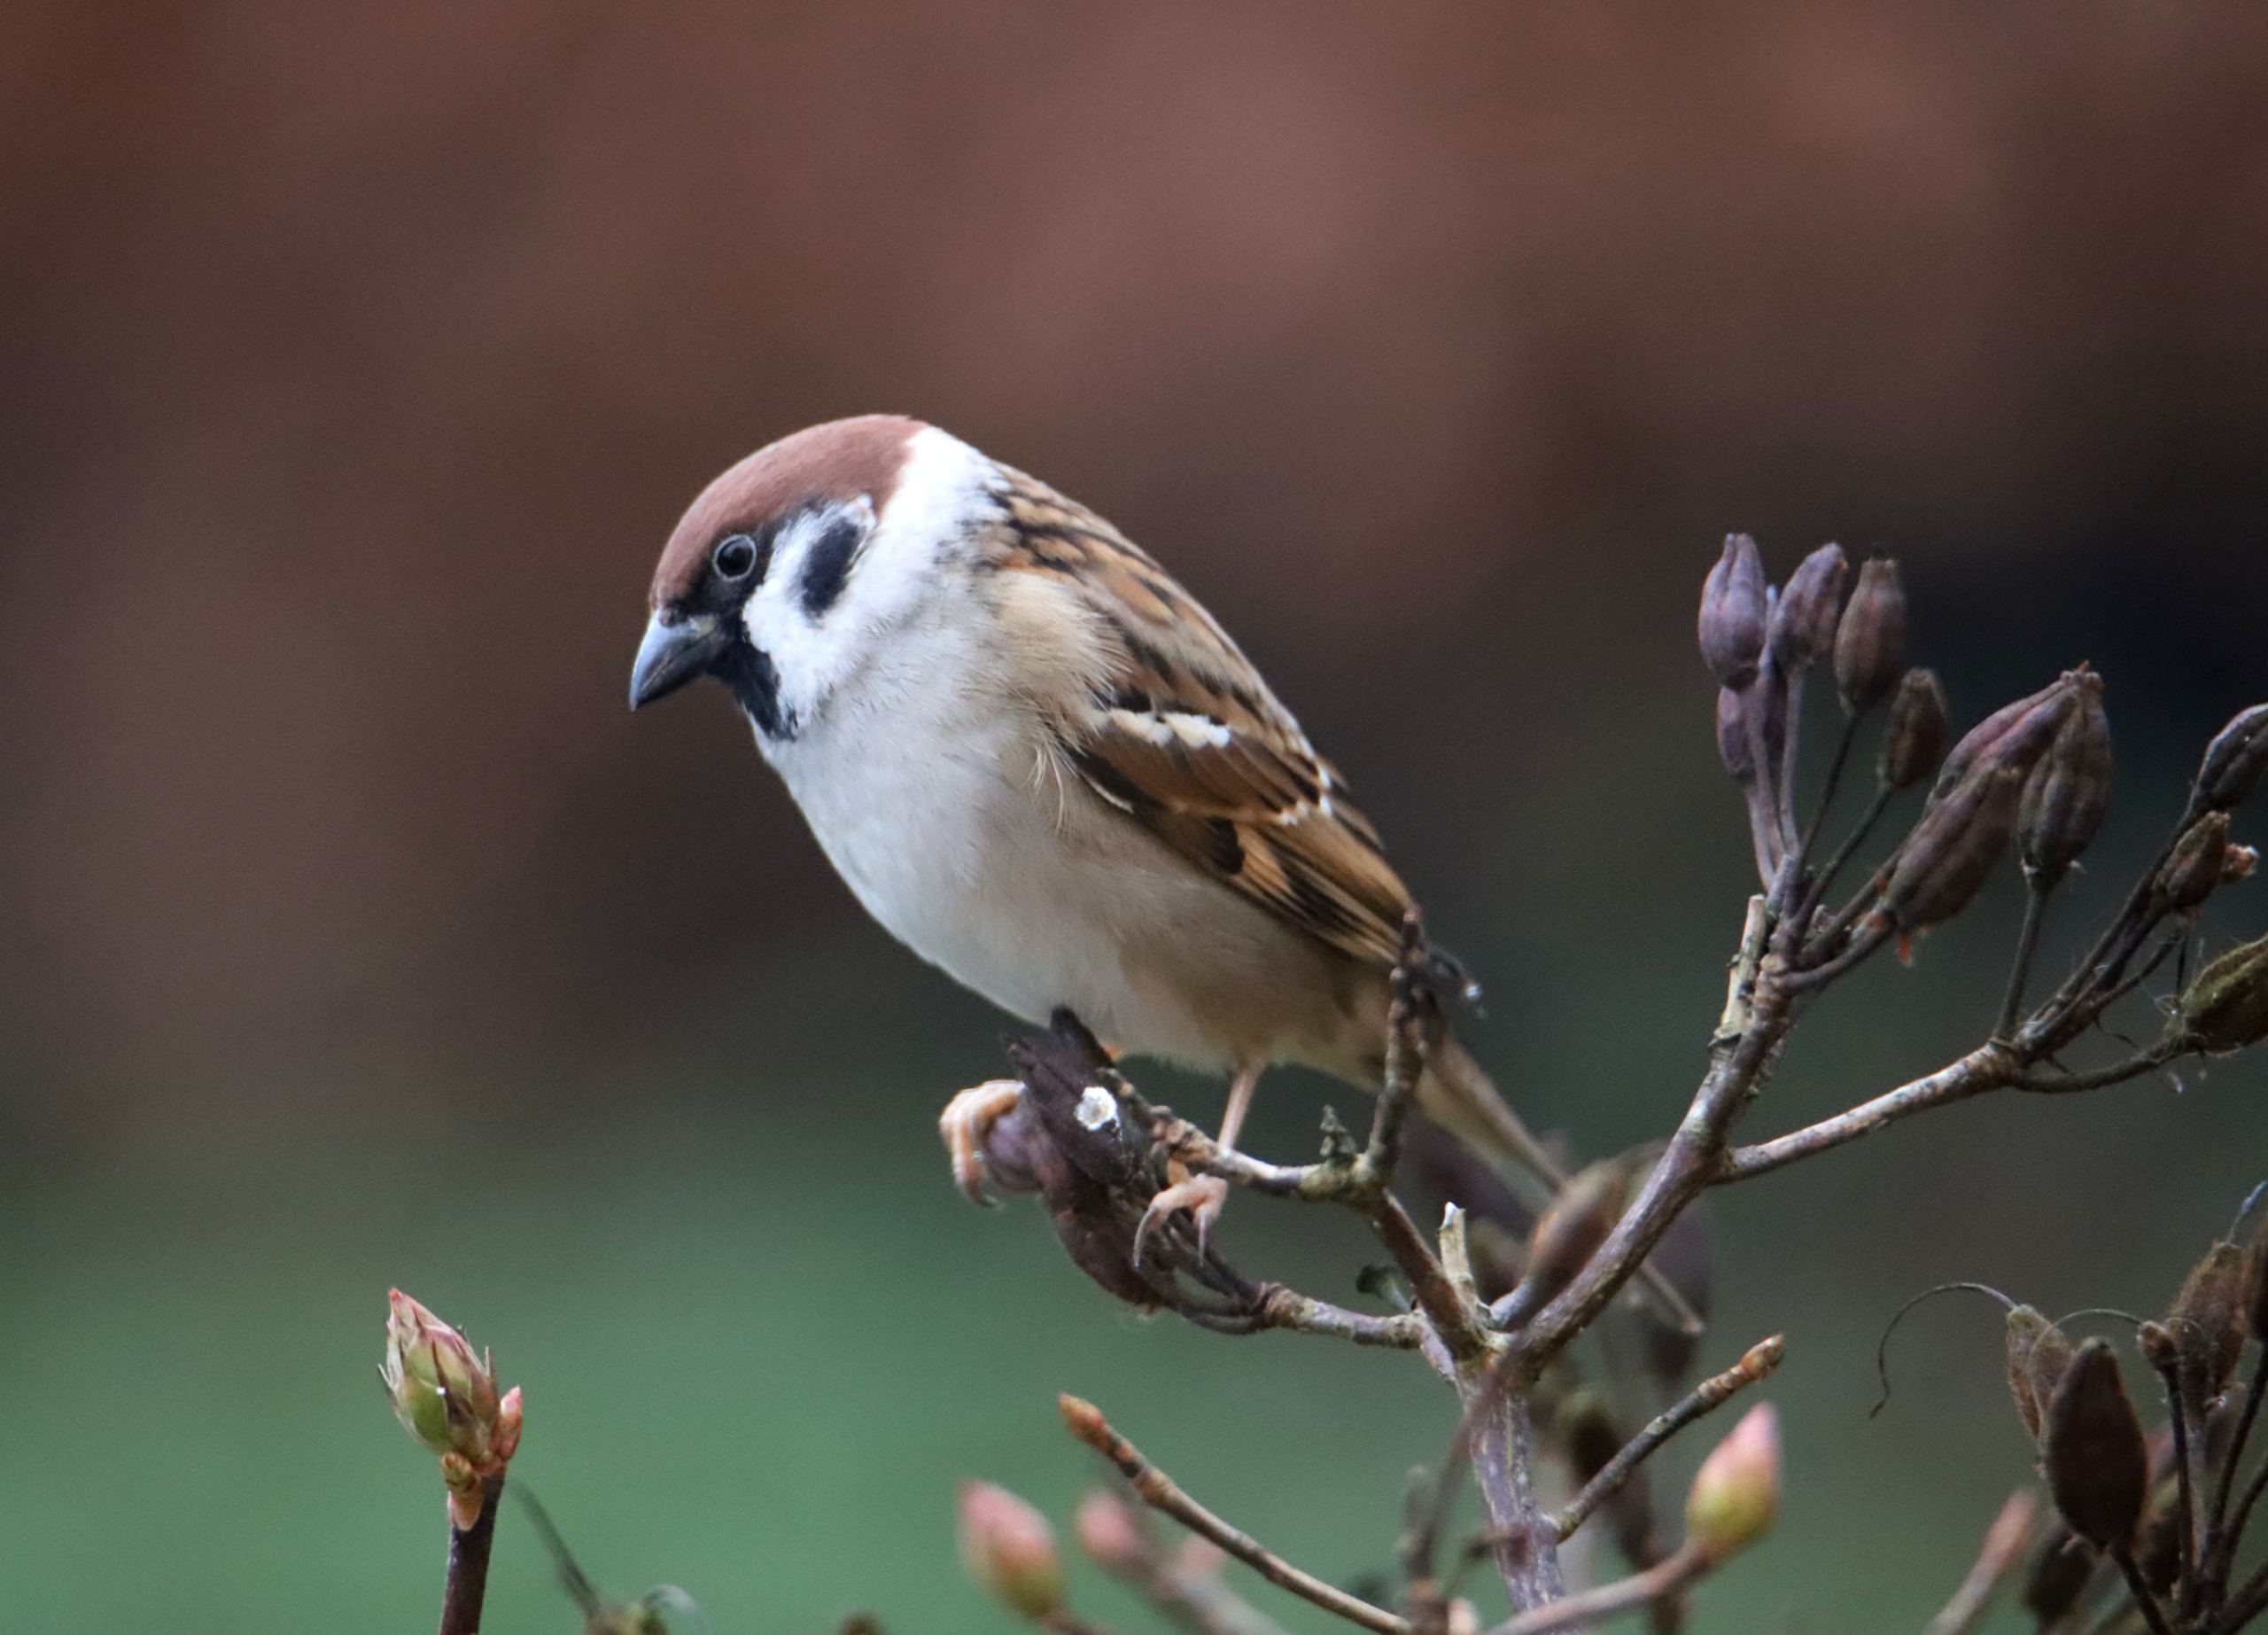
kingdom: Animalia
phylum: Chordata
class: Aves
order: Passeriformes
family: Passeridae
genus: Passer
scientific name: Passer montanus
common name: Skovspurv
